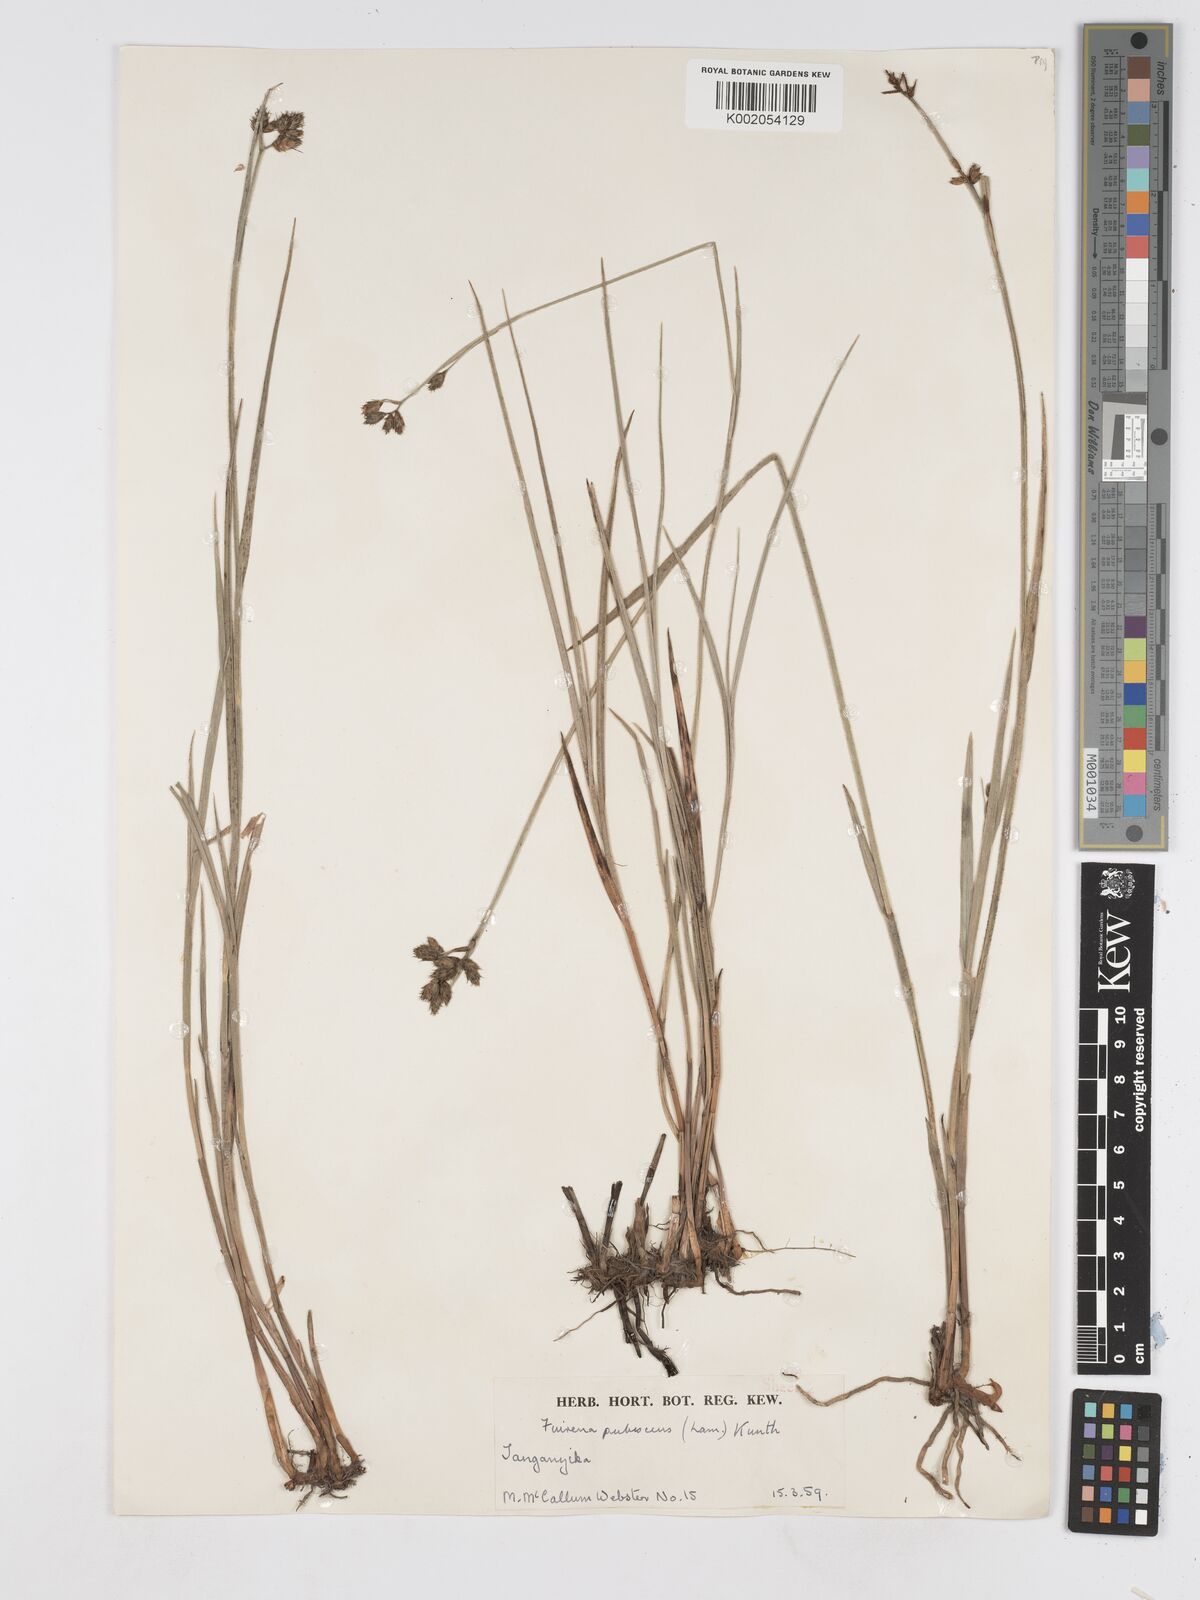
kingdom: Plantae
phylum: Tracheophyta
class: Liliopsida
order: Poales
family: Cyperaceae
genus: Fuirena
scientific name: Fuirena pubescens
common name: Hairy sedge
